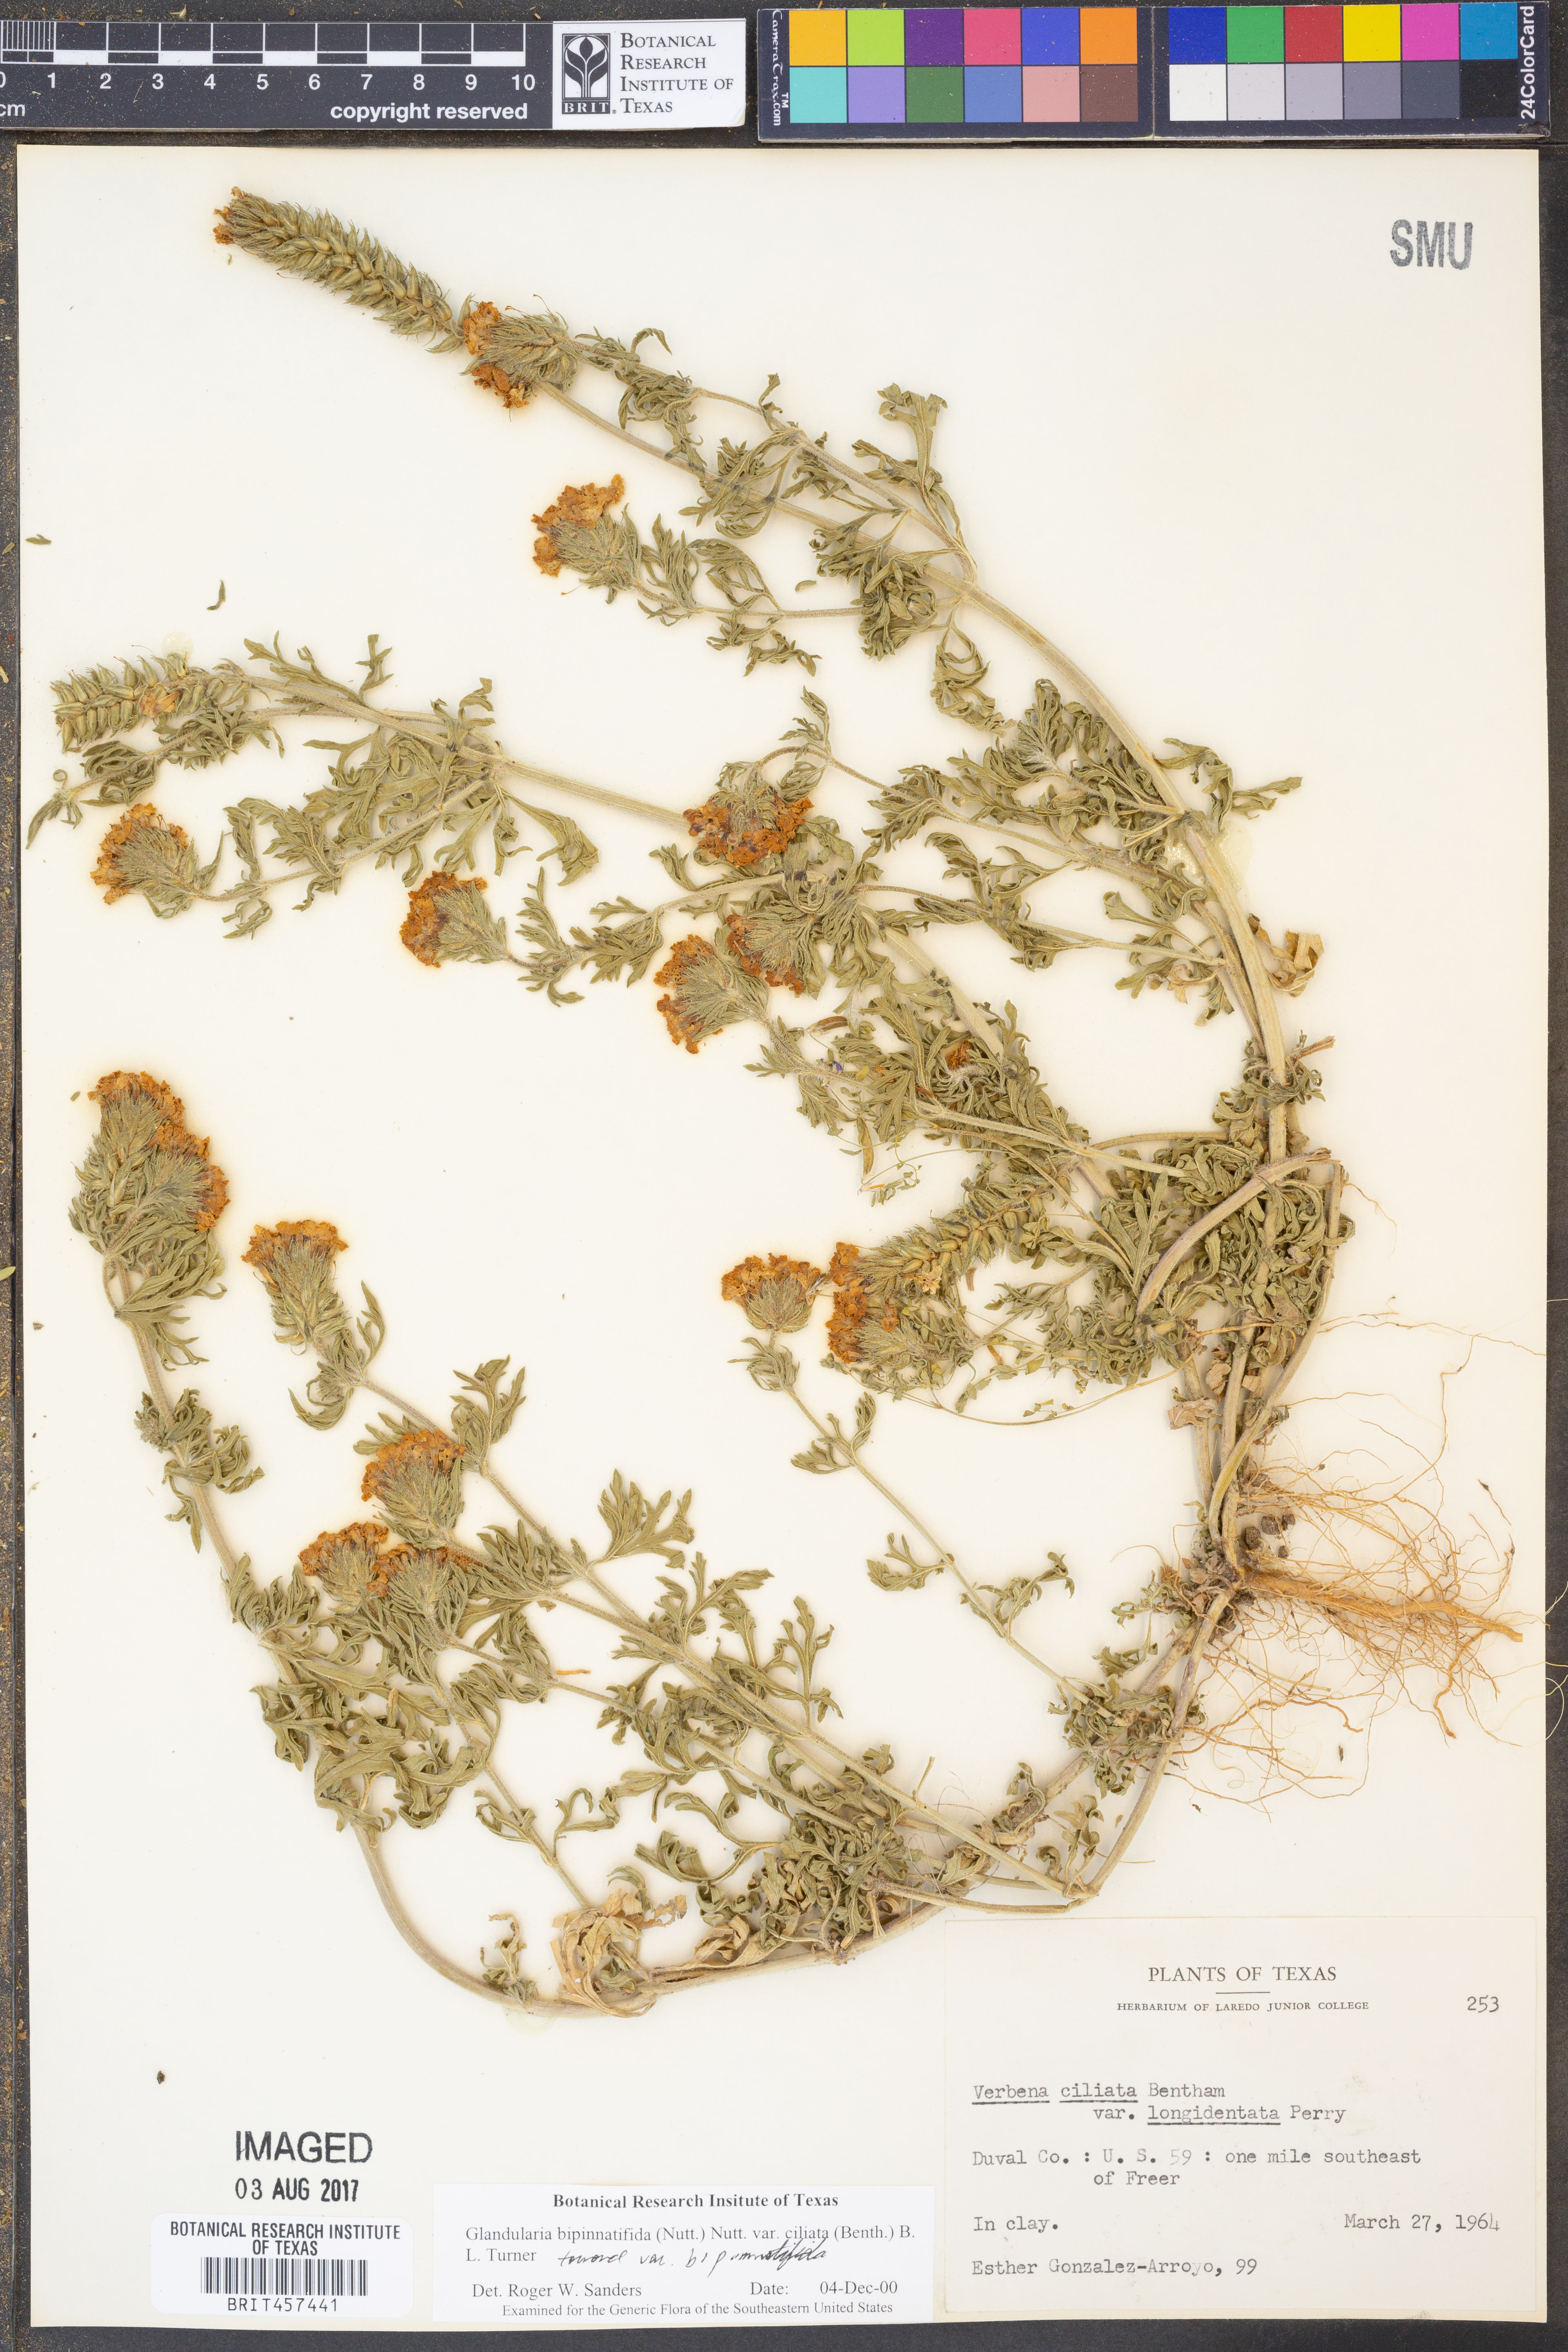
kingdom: Plantae
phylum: Tracheophyta
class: Magnoliopsida
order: Lamiales
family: Verbenaceae
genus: Verbena
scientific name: Verbena bipinnatifida
